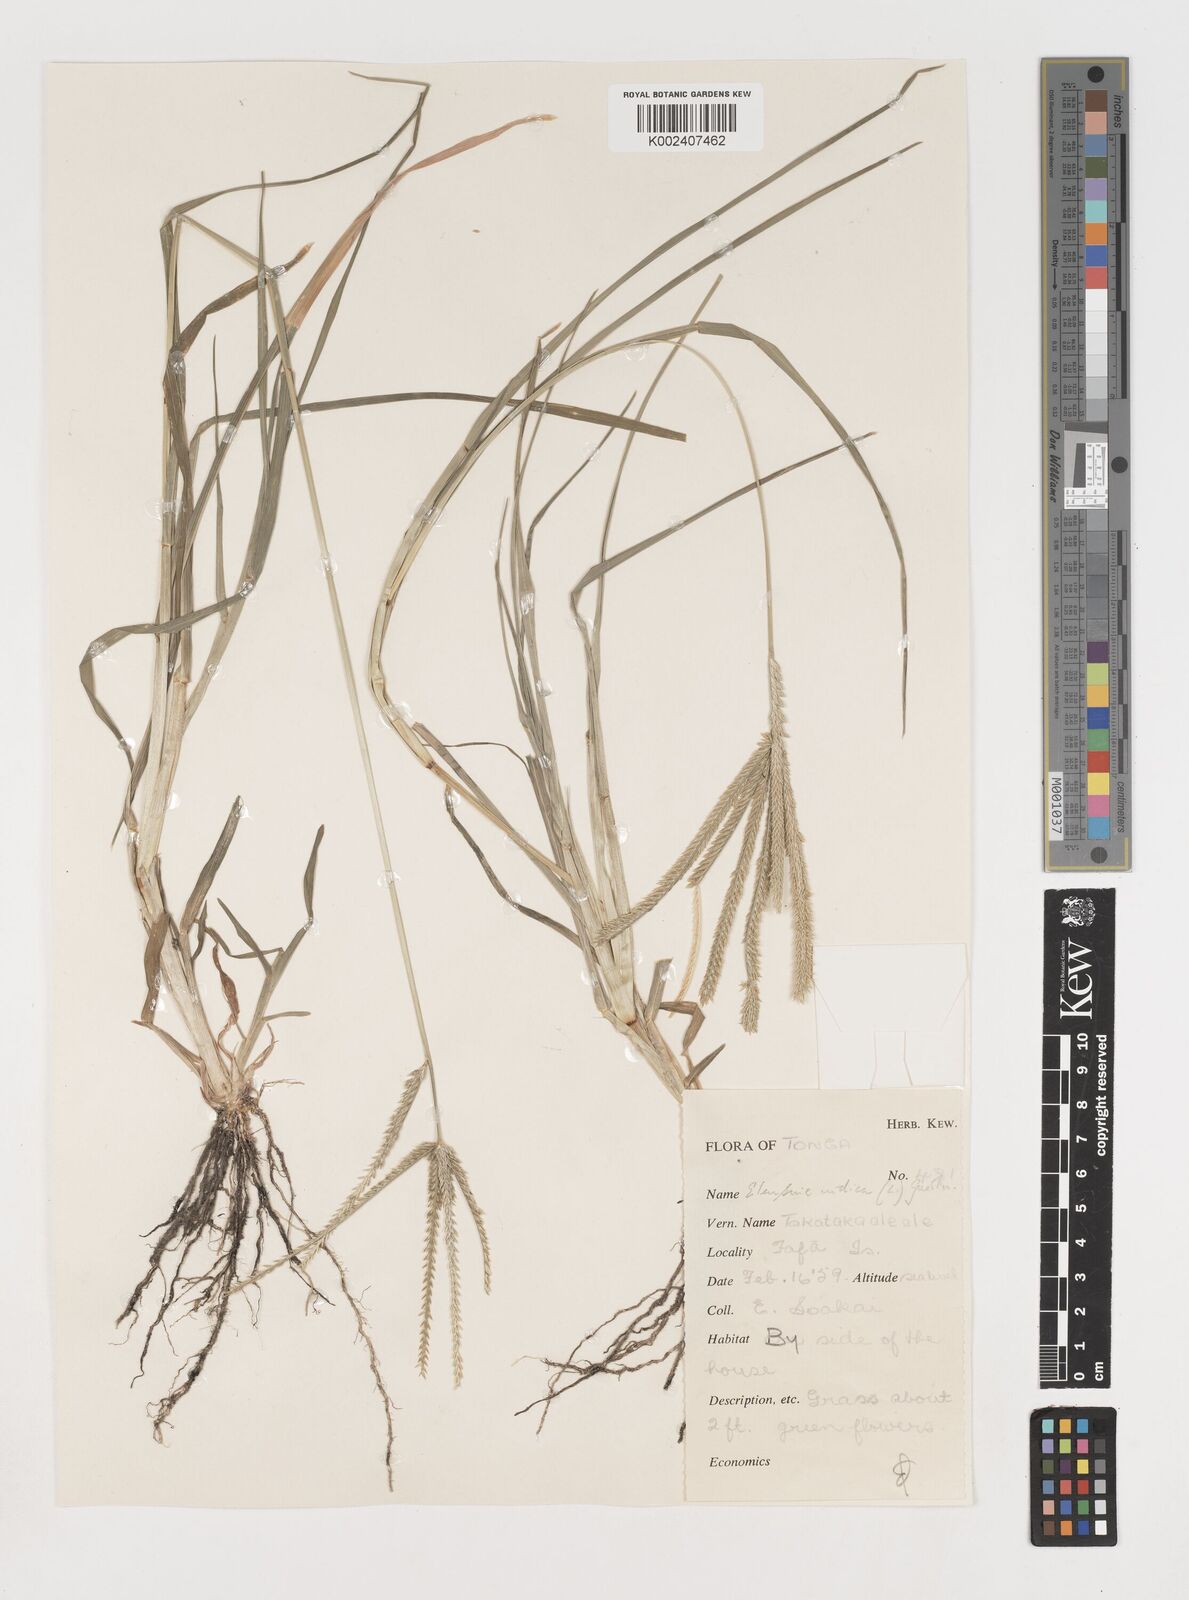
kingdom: Plantae
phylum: Tracheophyta
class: Liliopsida
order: Poales
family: Poaceae
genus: Eleusine
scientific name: Eleusine indica
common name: Yard-grass
